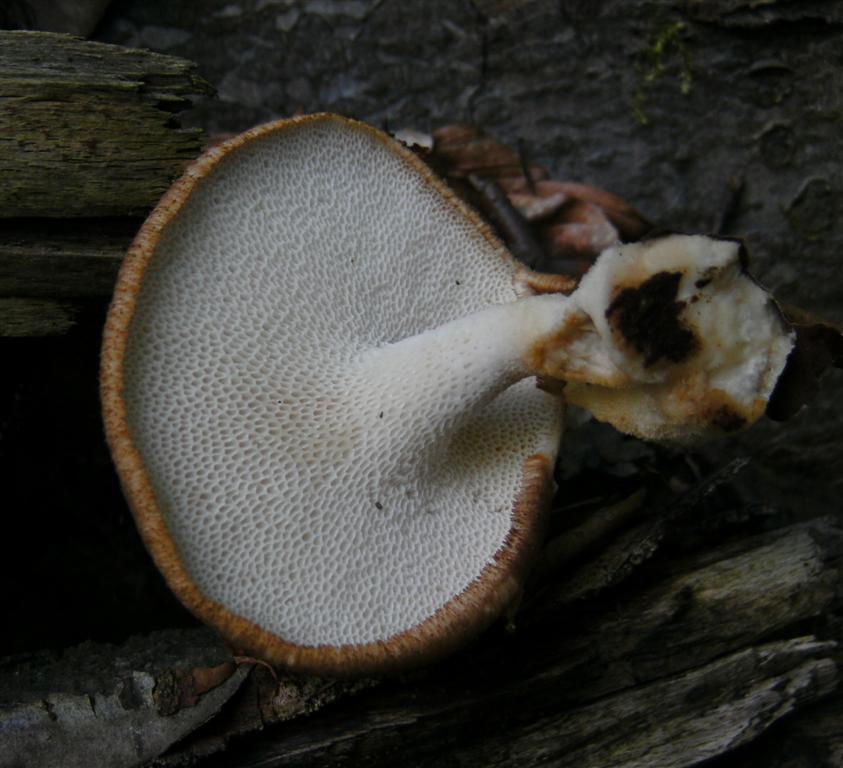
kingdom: Fungi
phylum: Basidiomycota
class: Agaricomycetes
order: Polyporales
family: Polyporaceae
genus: Polyporus
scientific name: Polyporus tuberaster
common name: knoldet stilkporesvamp
